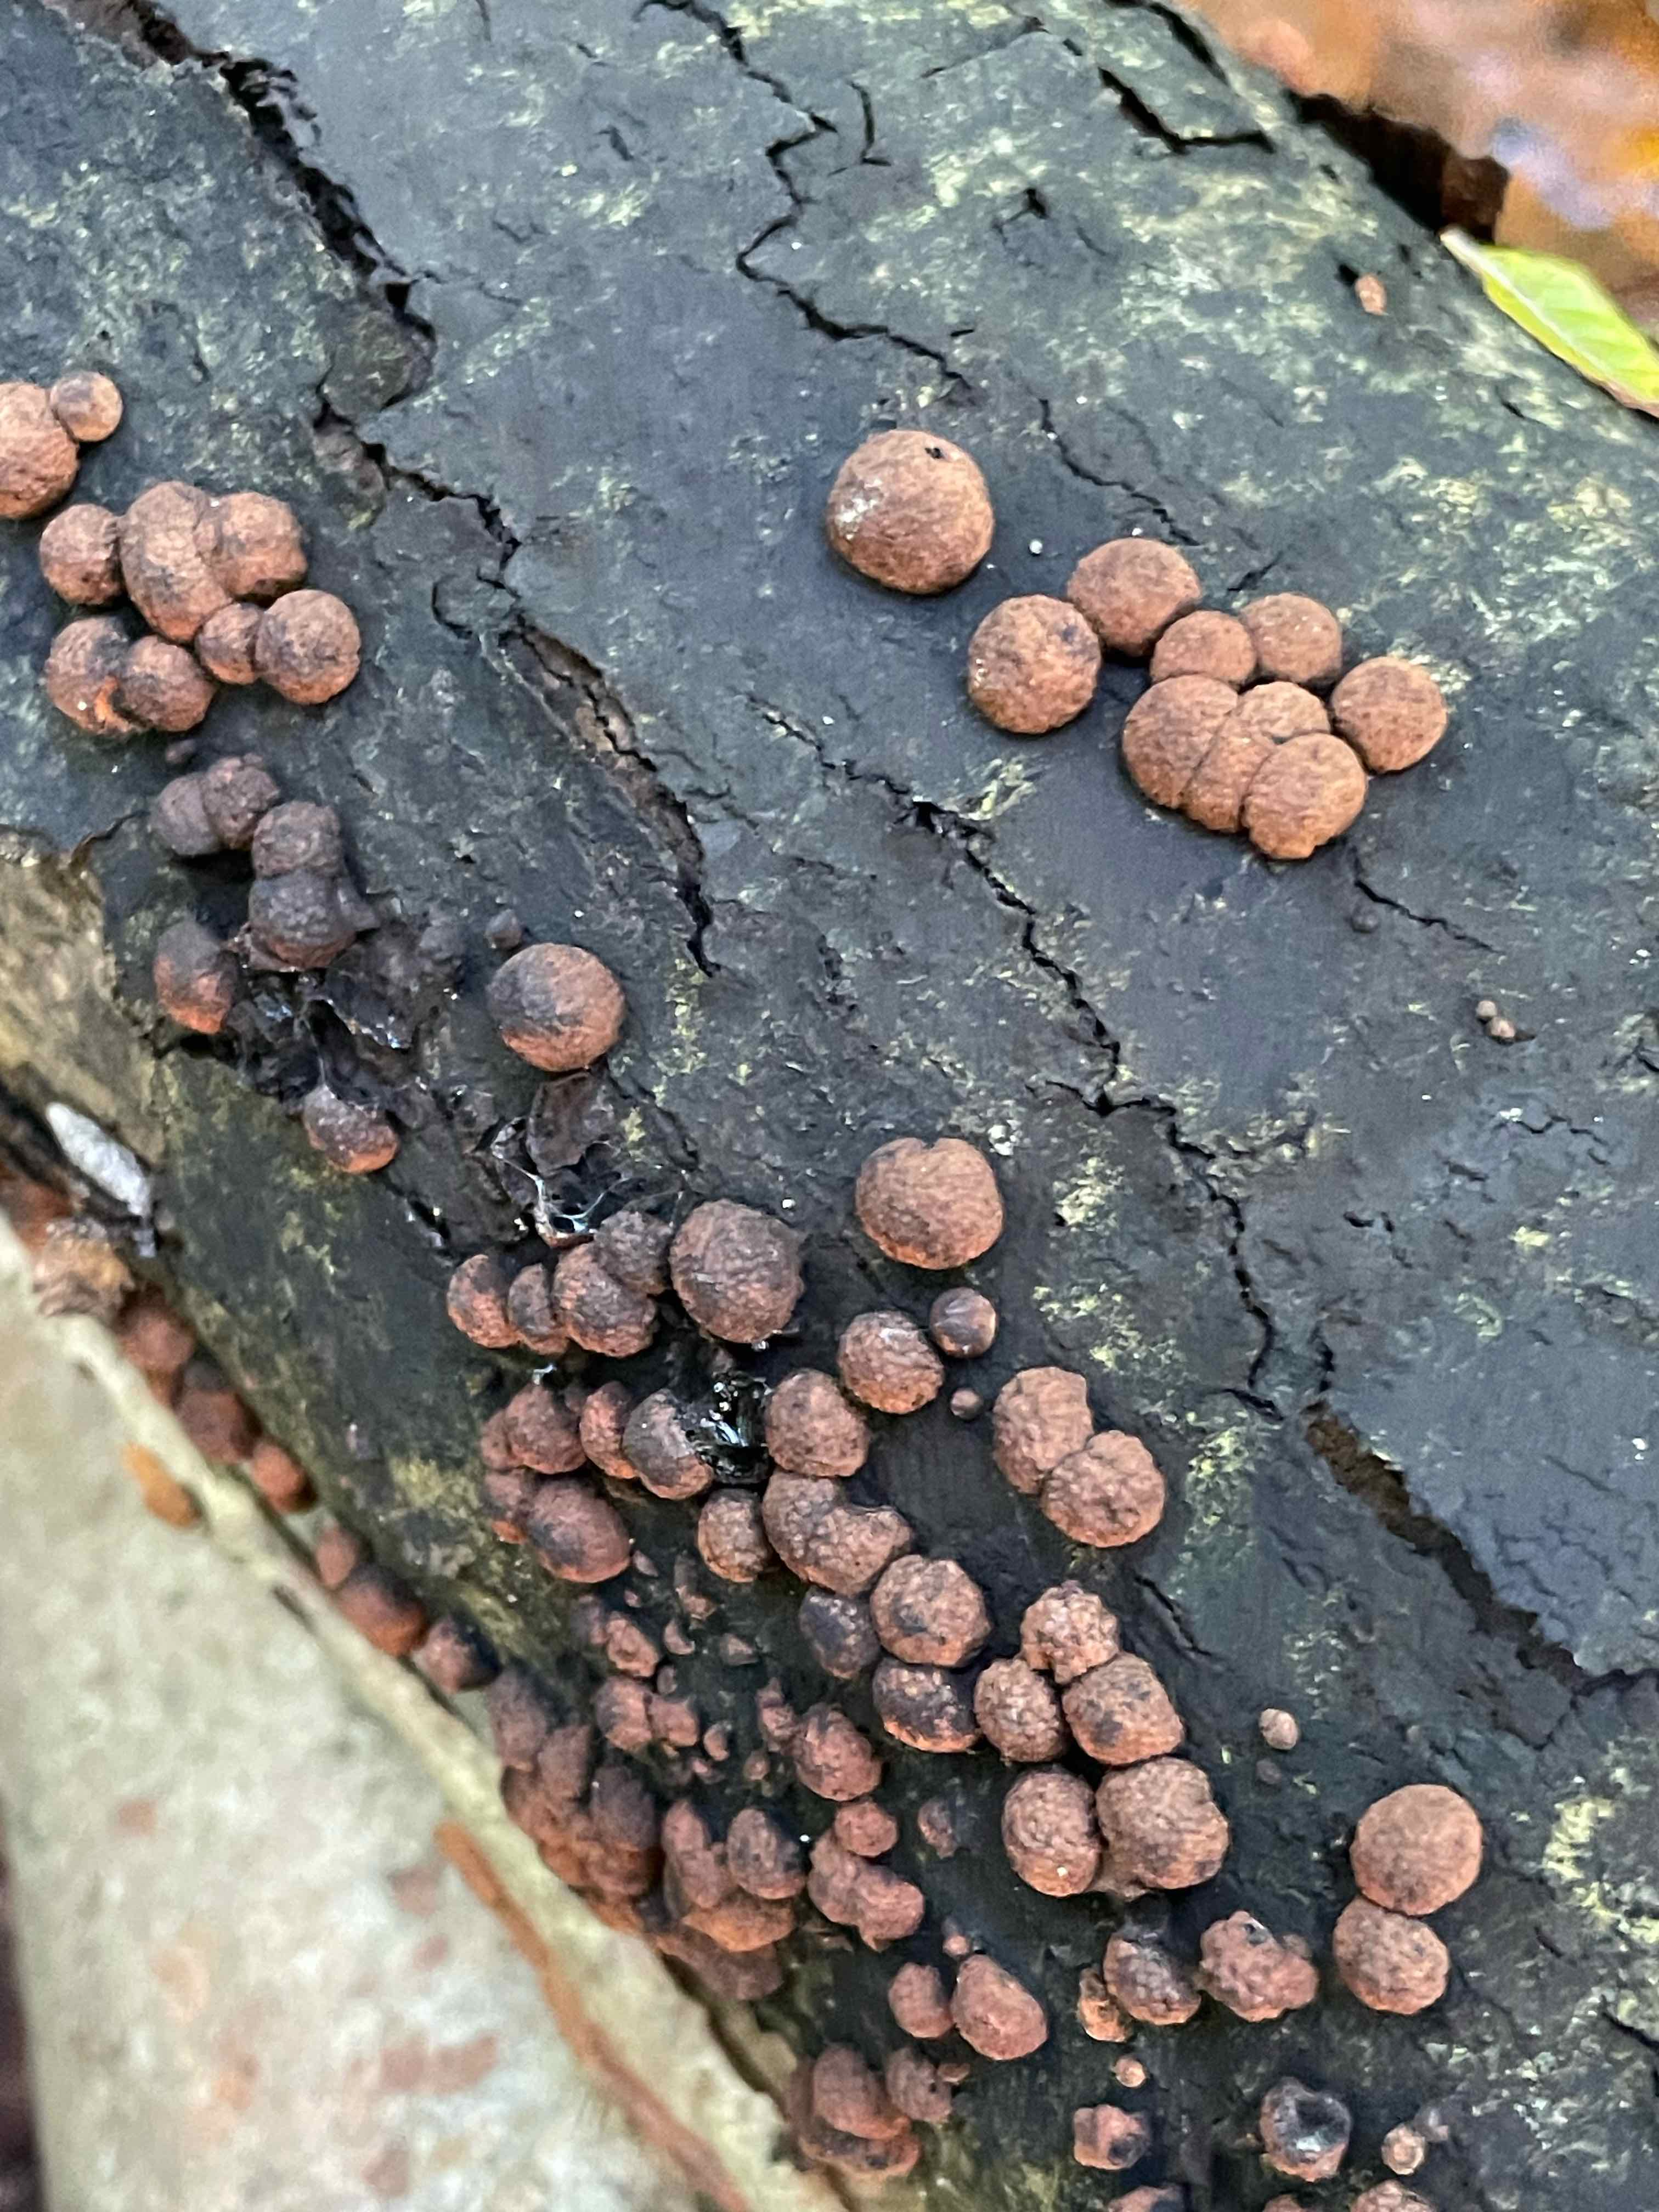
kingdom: Fungi
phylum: Ascomycota
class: Sordariomycetes
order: Xylariales
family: Hypoxylaceae
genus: Hypoxylon
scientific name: Hypoxylon fragiforme
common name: kuljordbær
